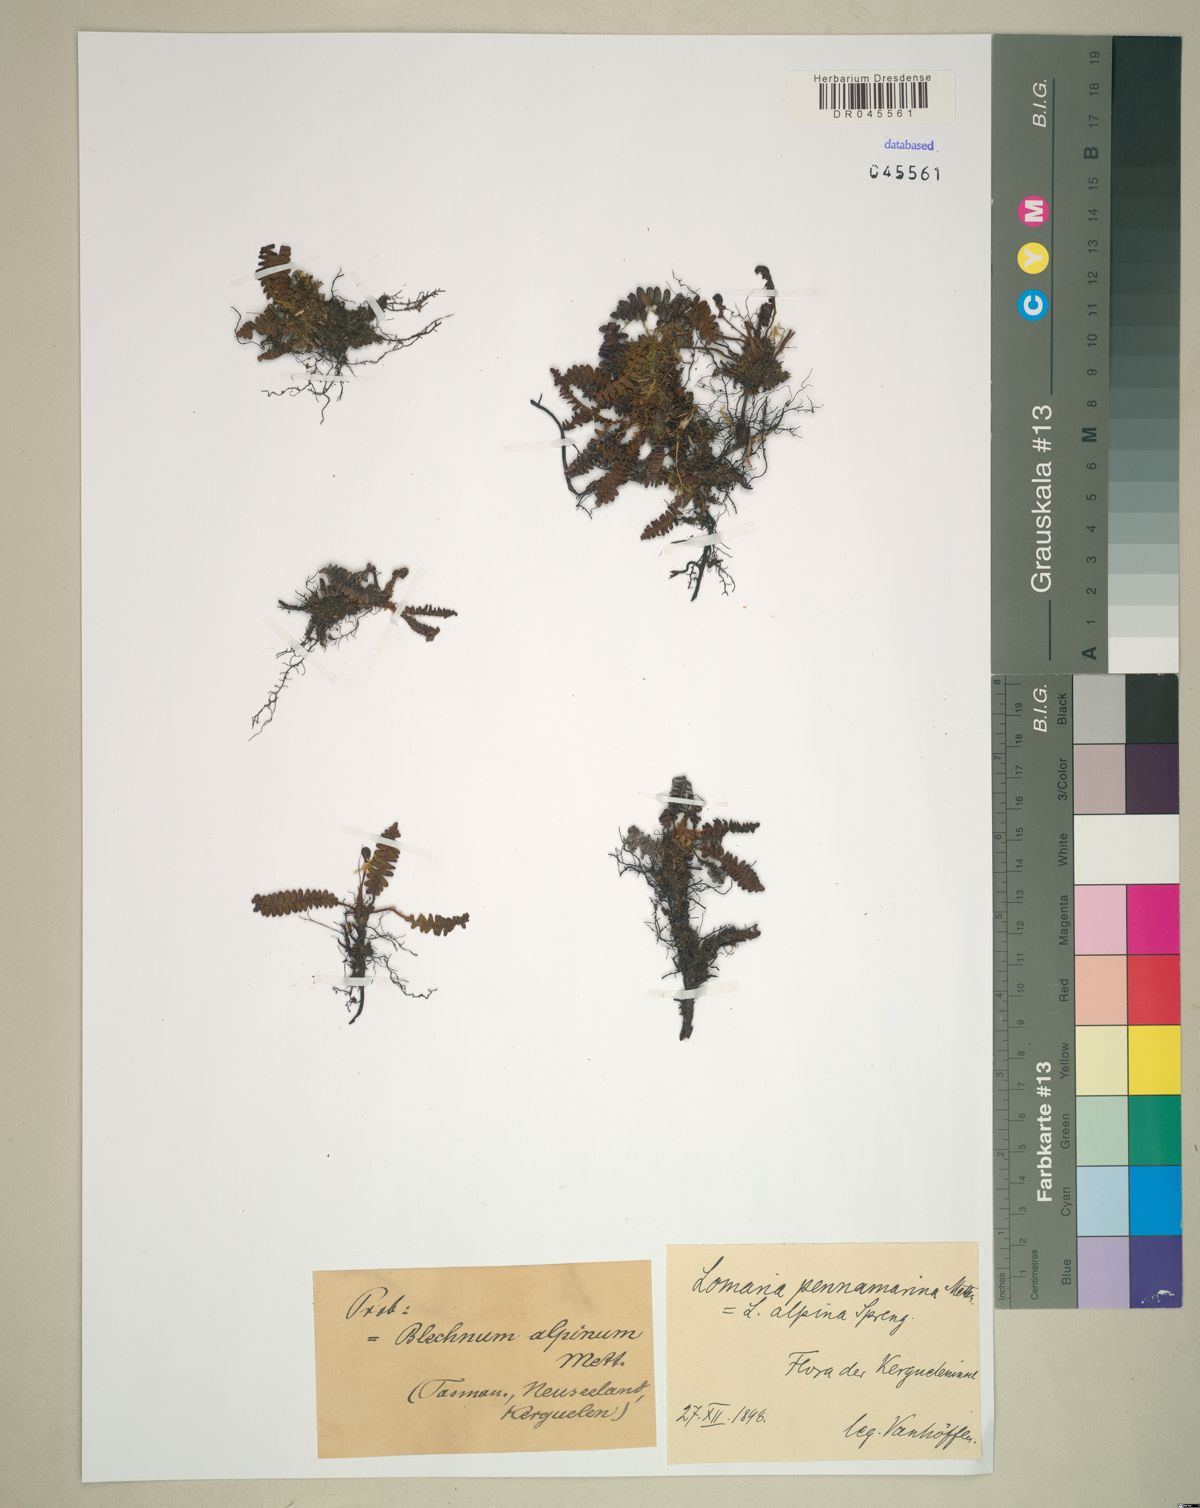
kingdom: Plantae
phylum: Tracheophyta
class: Polypodiopsida
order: Polypodiales
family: Blechnaceae
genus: Austroblechnum
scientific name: Austroblechnum penna-marina
